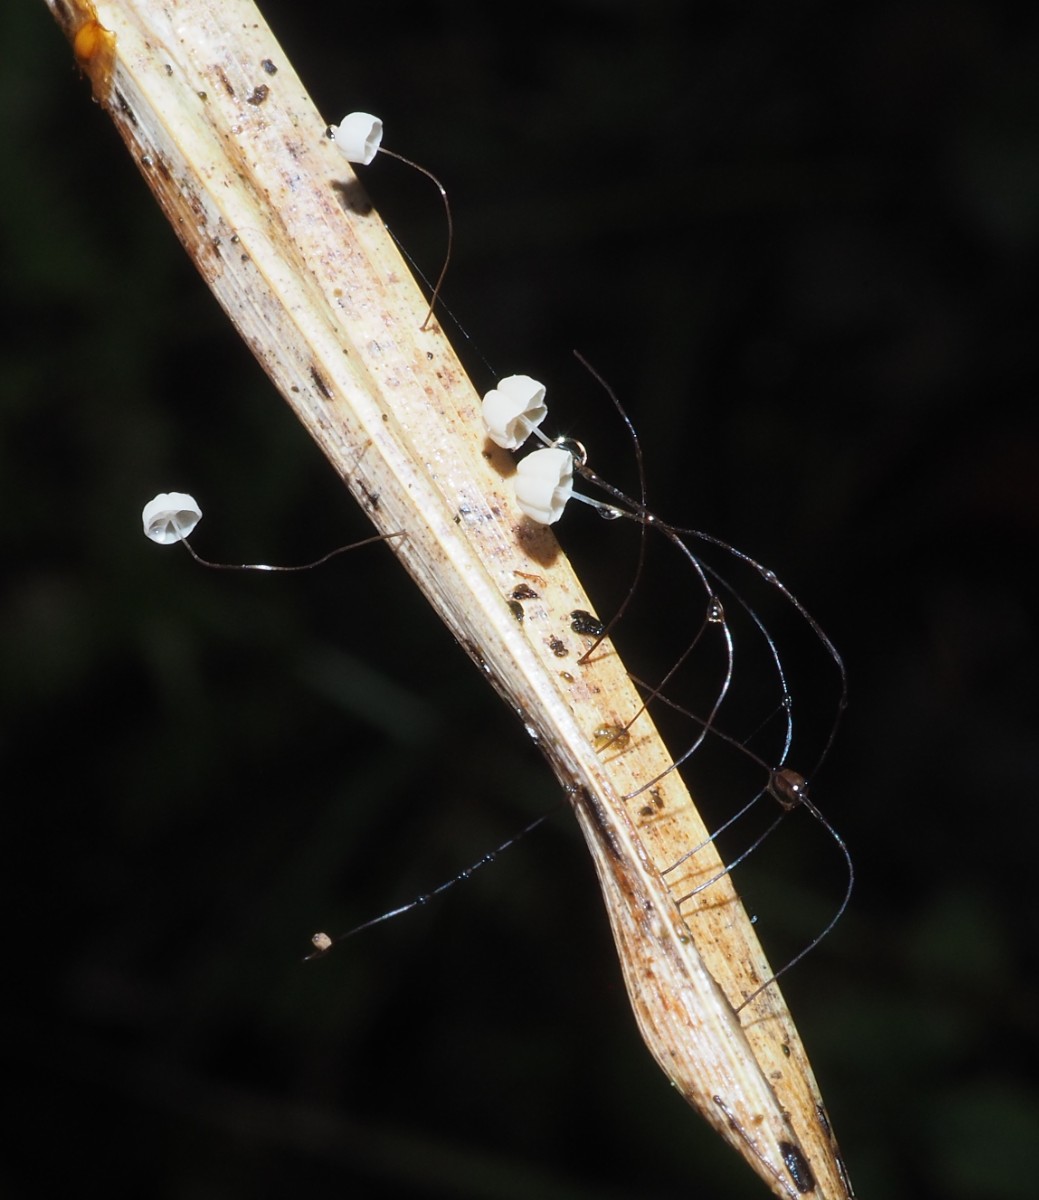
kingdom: Fungi
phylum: Basidiomycota
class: Agaricomycetes
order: Agaricales
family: Marasmiaceae
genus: Marasmius
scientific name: Marasmius limosus
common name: kær-bruskhat
